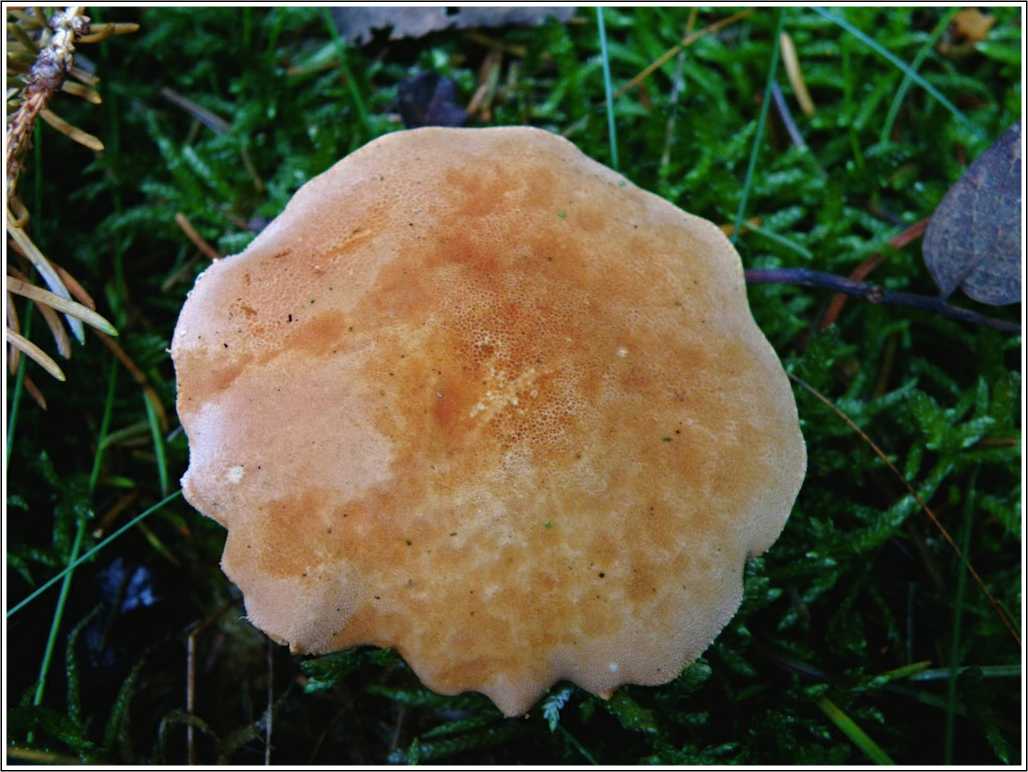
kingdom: Fungi
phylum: Basidiomycota
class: Agaricomycetes
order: Agaricales
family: Agaricaceae
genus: Cystodermella
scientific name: Cystodermella adnatifolia
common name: koralrød grynhat
